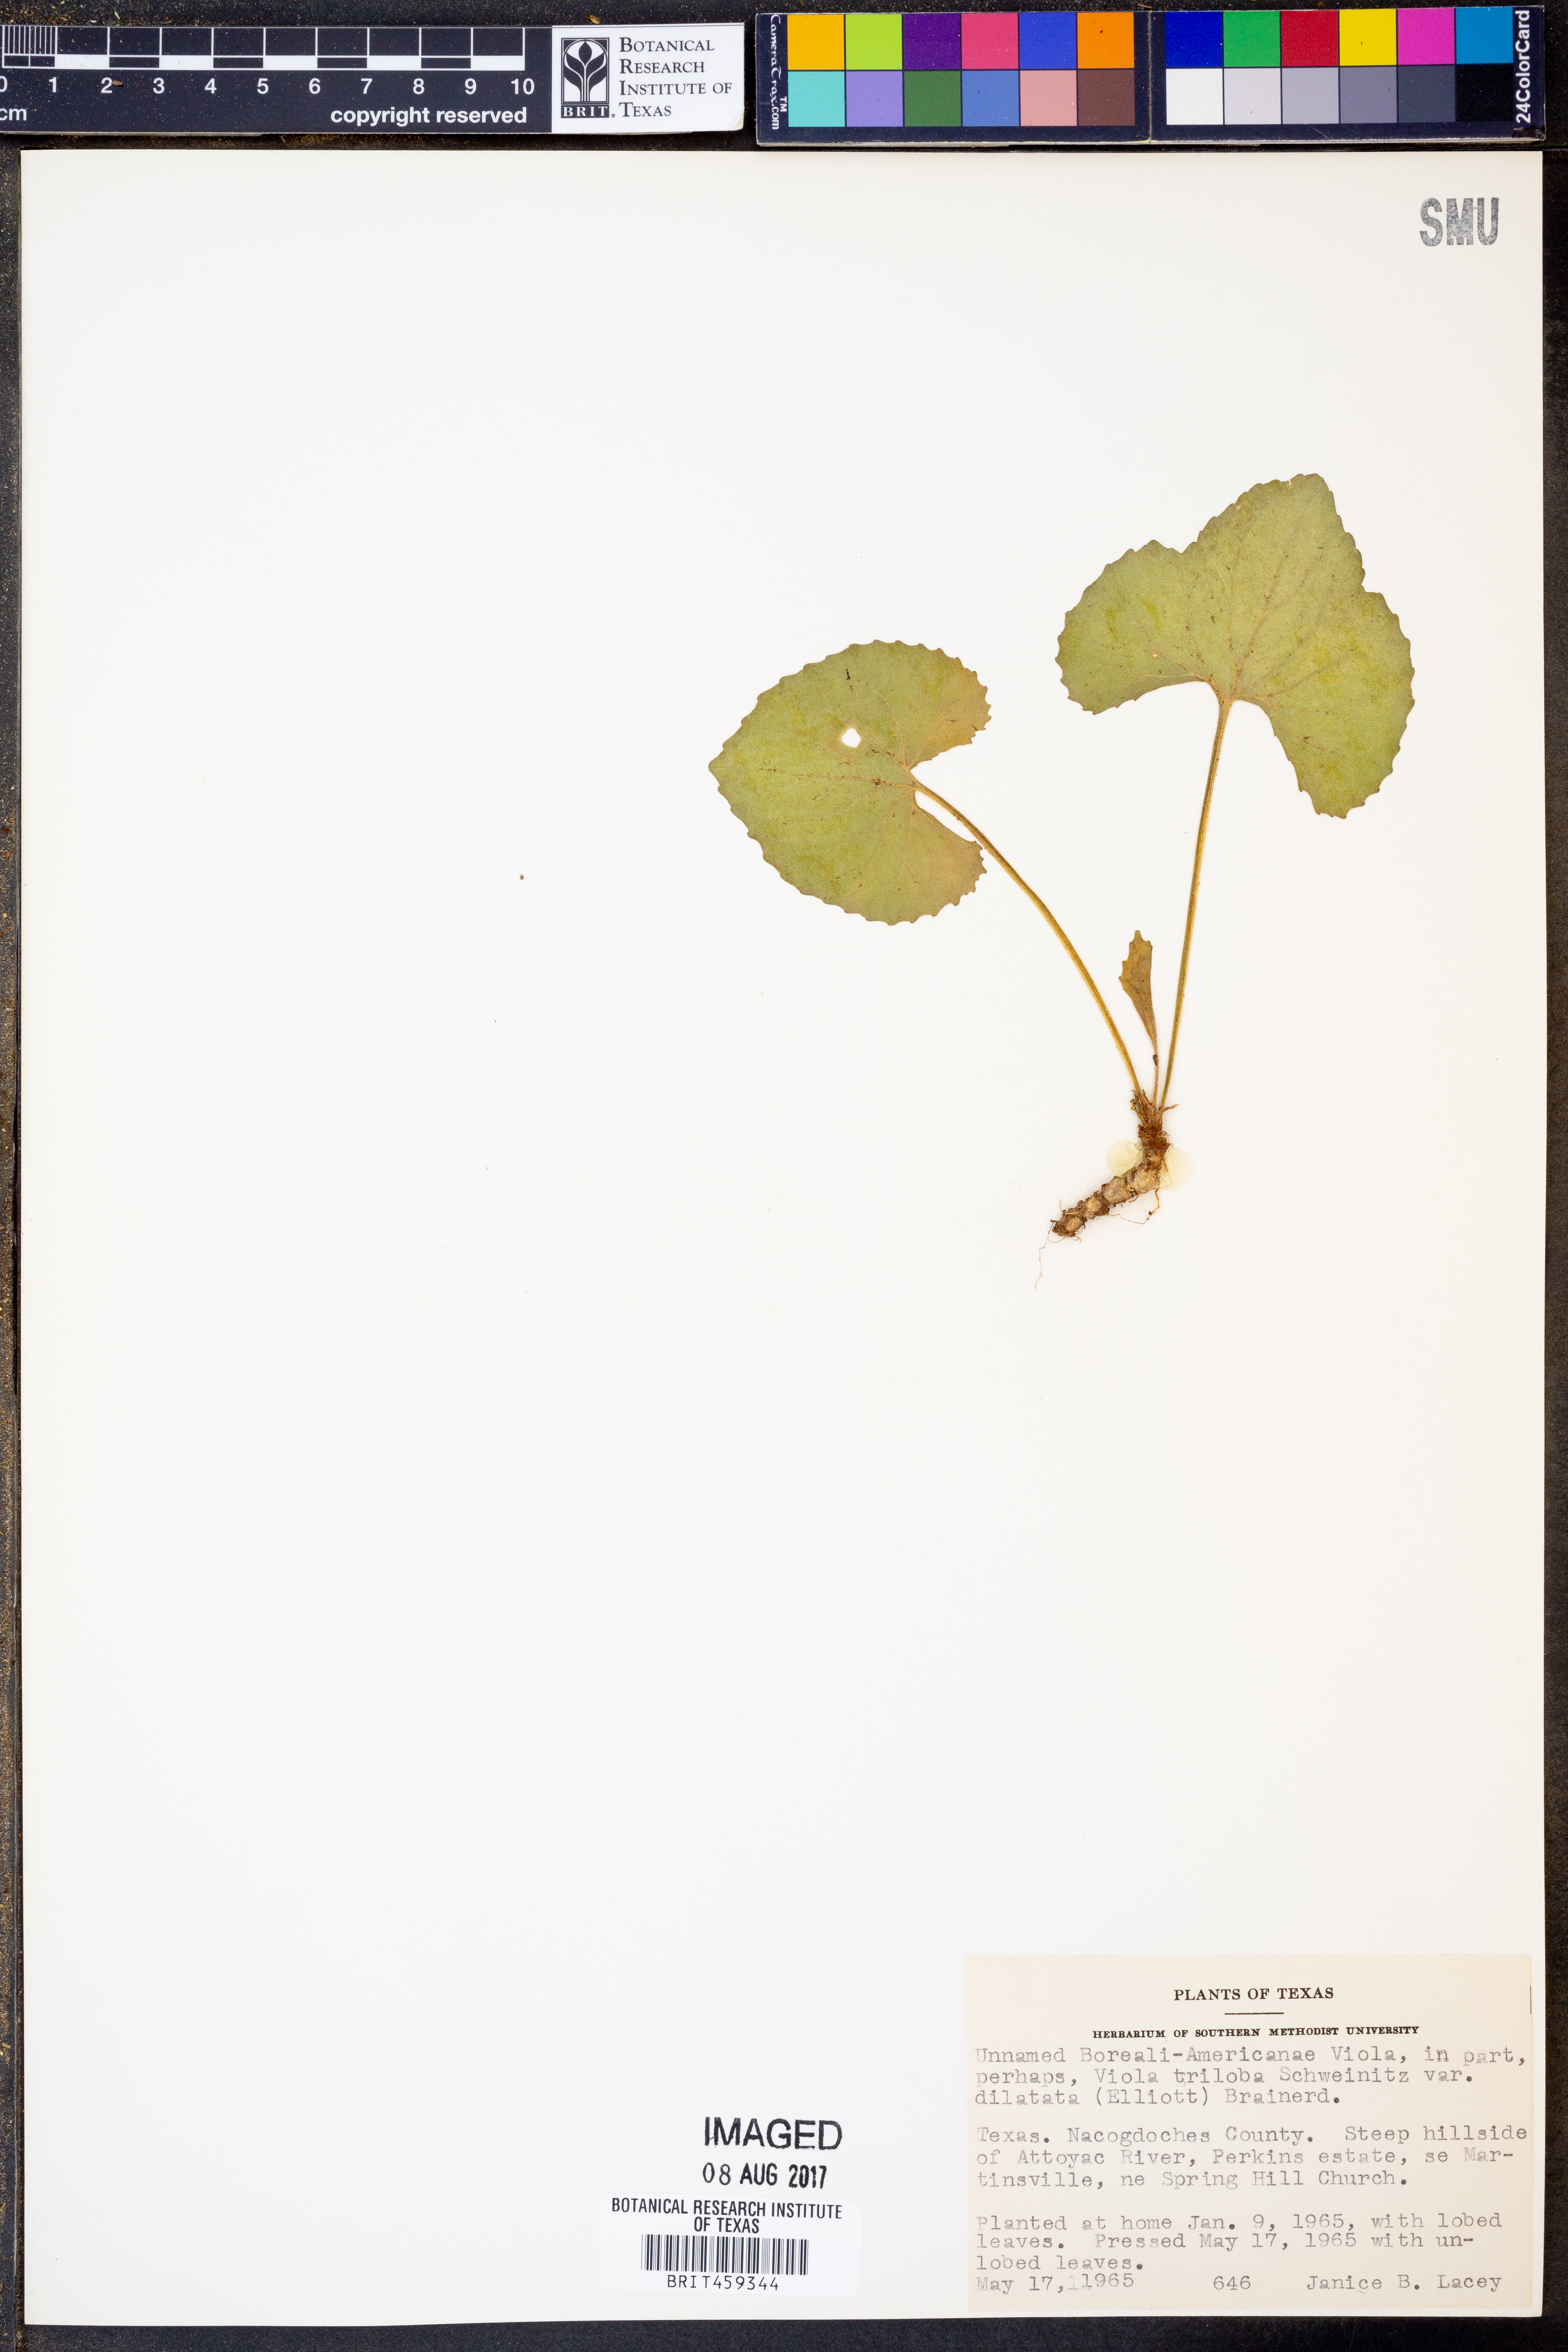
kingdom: Plantae
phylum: Tracheophyta
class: Magnoliopsida
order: Malpighiales
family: Violaceae
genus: Viola
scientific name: Viola
